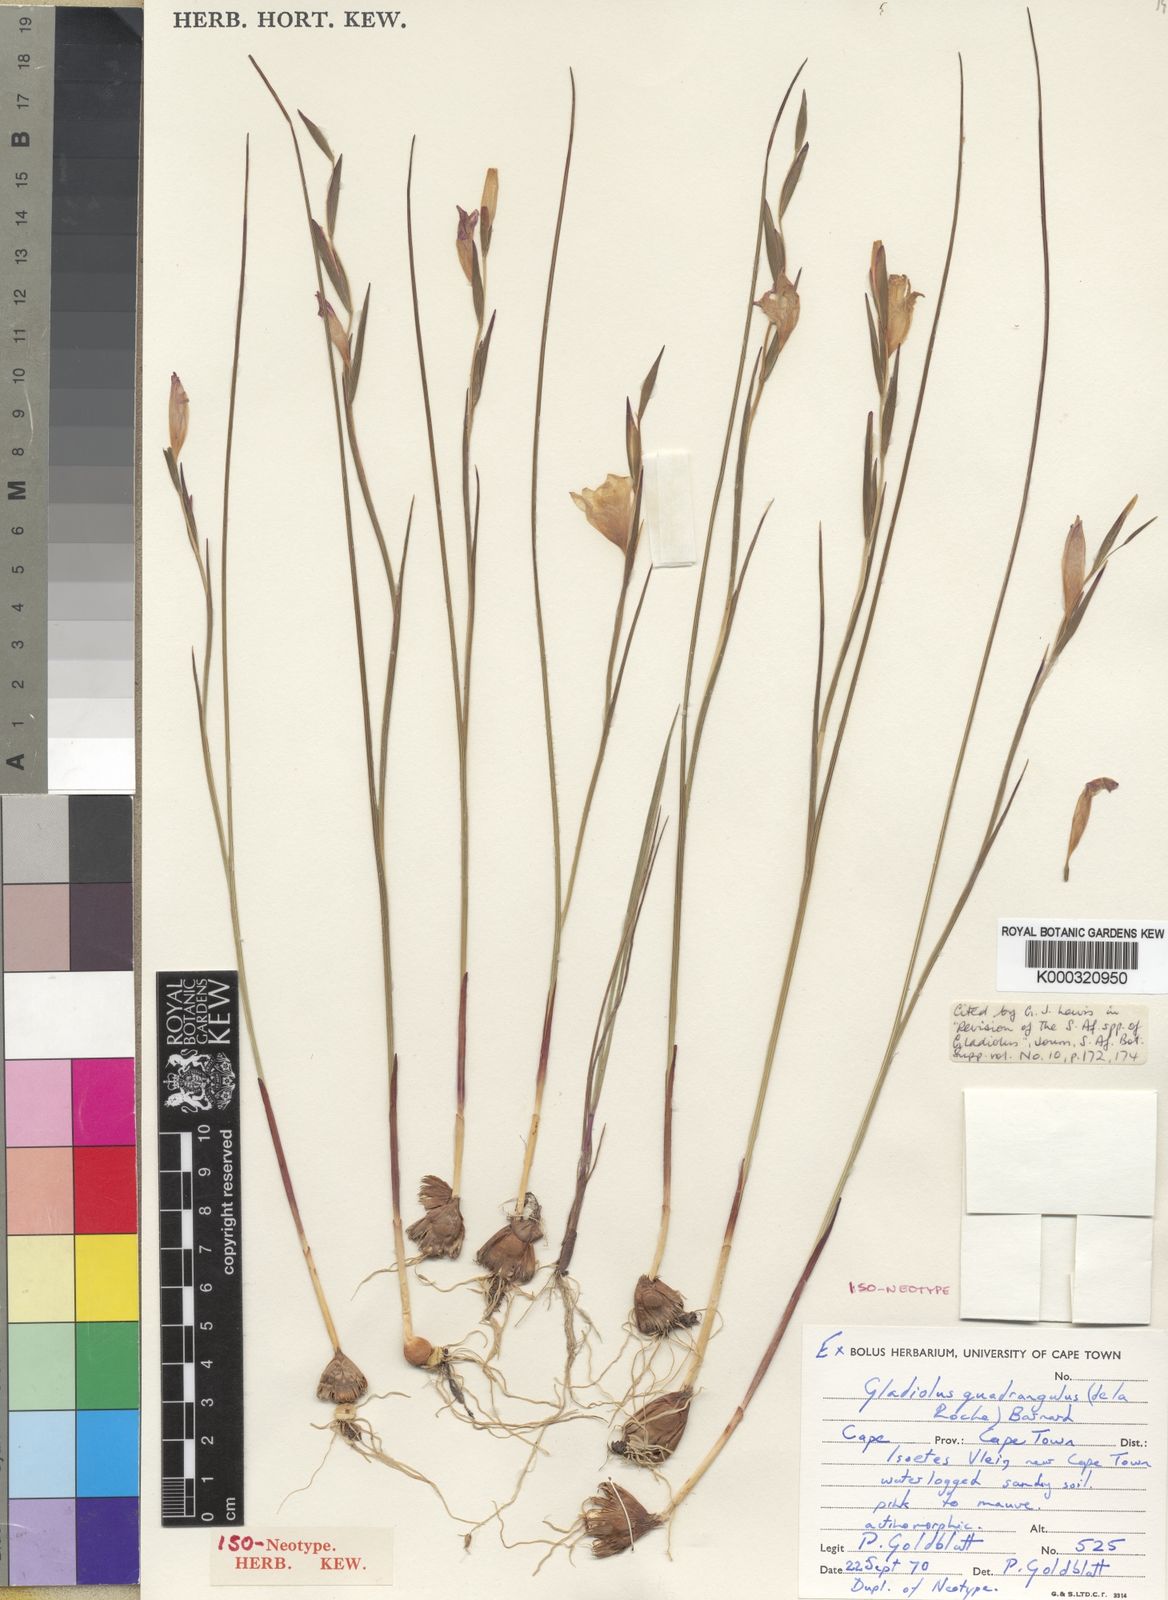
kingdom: Plantae
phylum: Tracheophyta
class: Liliopsida
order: Asparagales
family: Iridaceae
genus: Gladiolus
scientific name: Gladiolus quadrangulus
